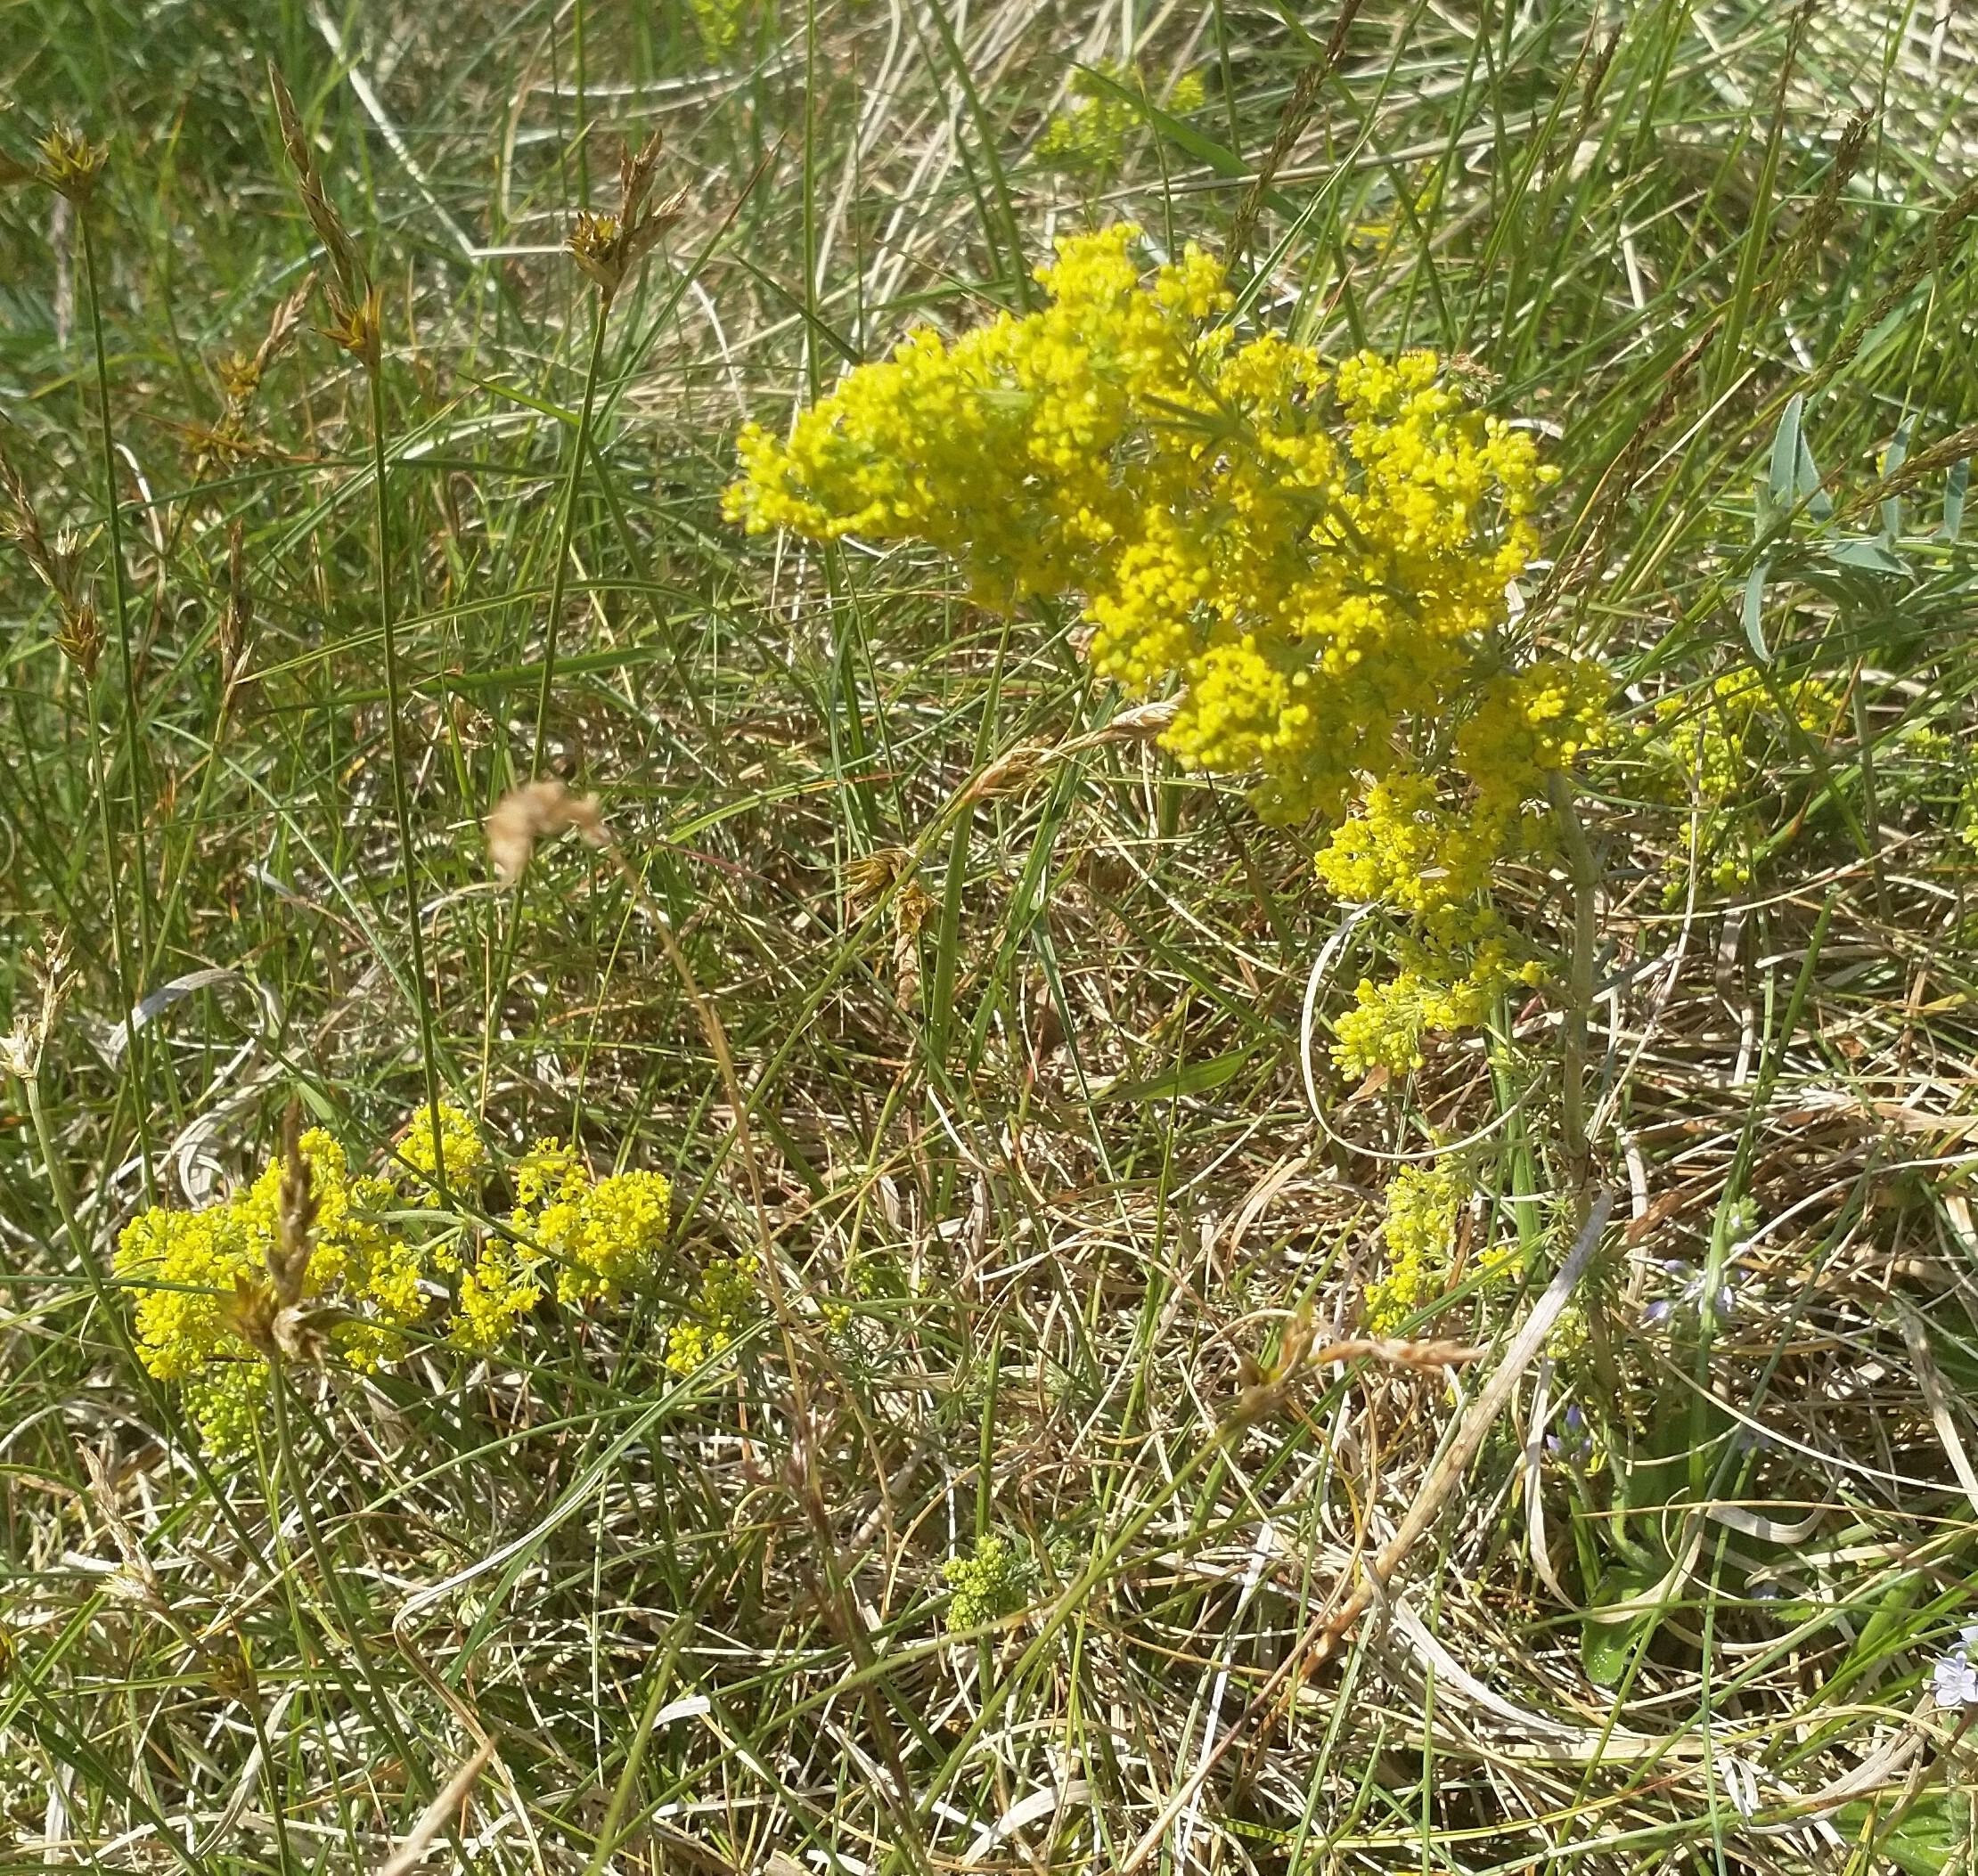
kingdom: Plantae
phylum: Tracheophyta
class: Magnoliopsida
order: Gentianales
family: Rubiaceae
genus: Galium
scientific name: Galium verum
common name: Gul snerre
